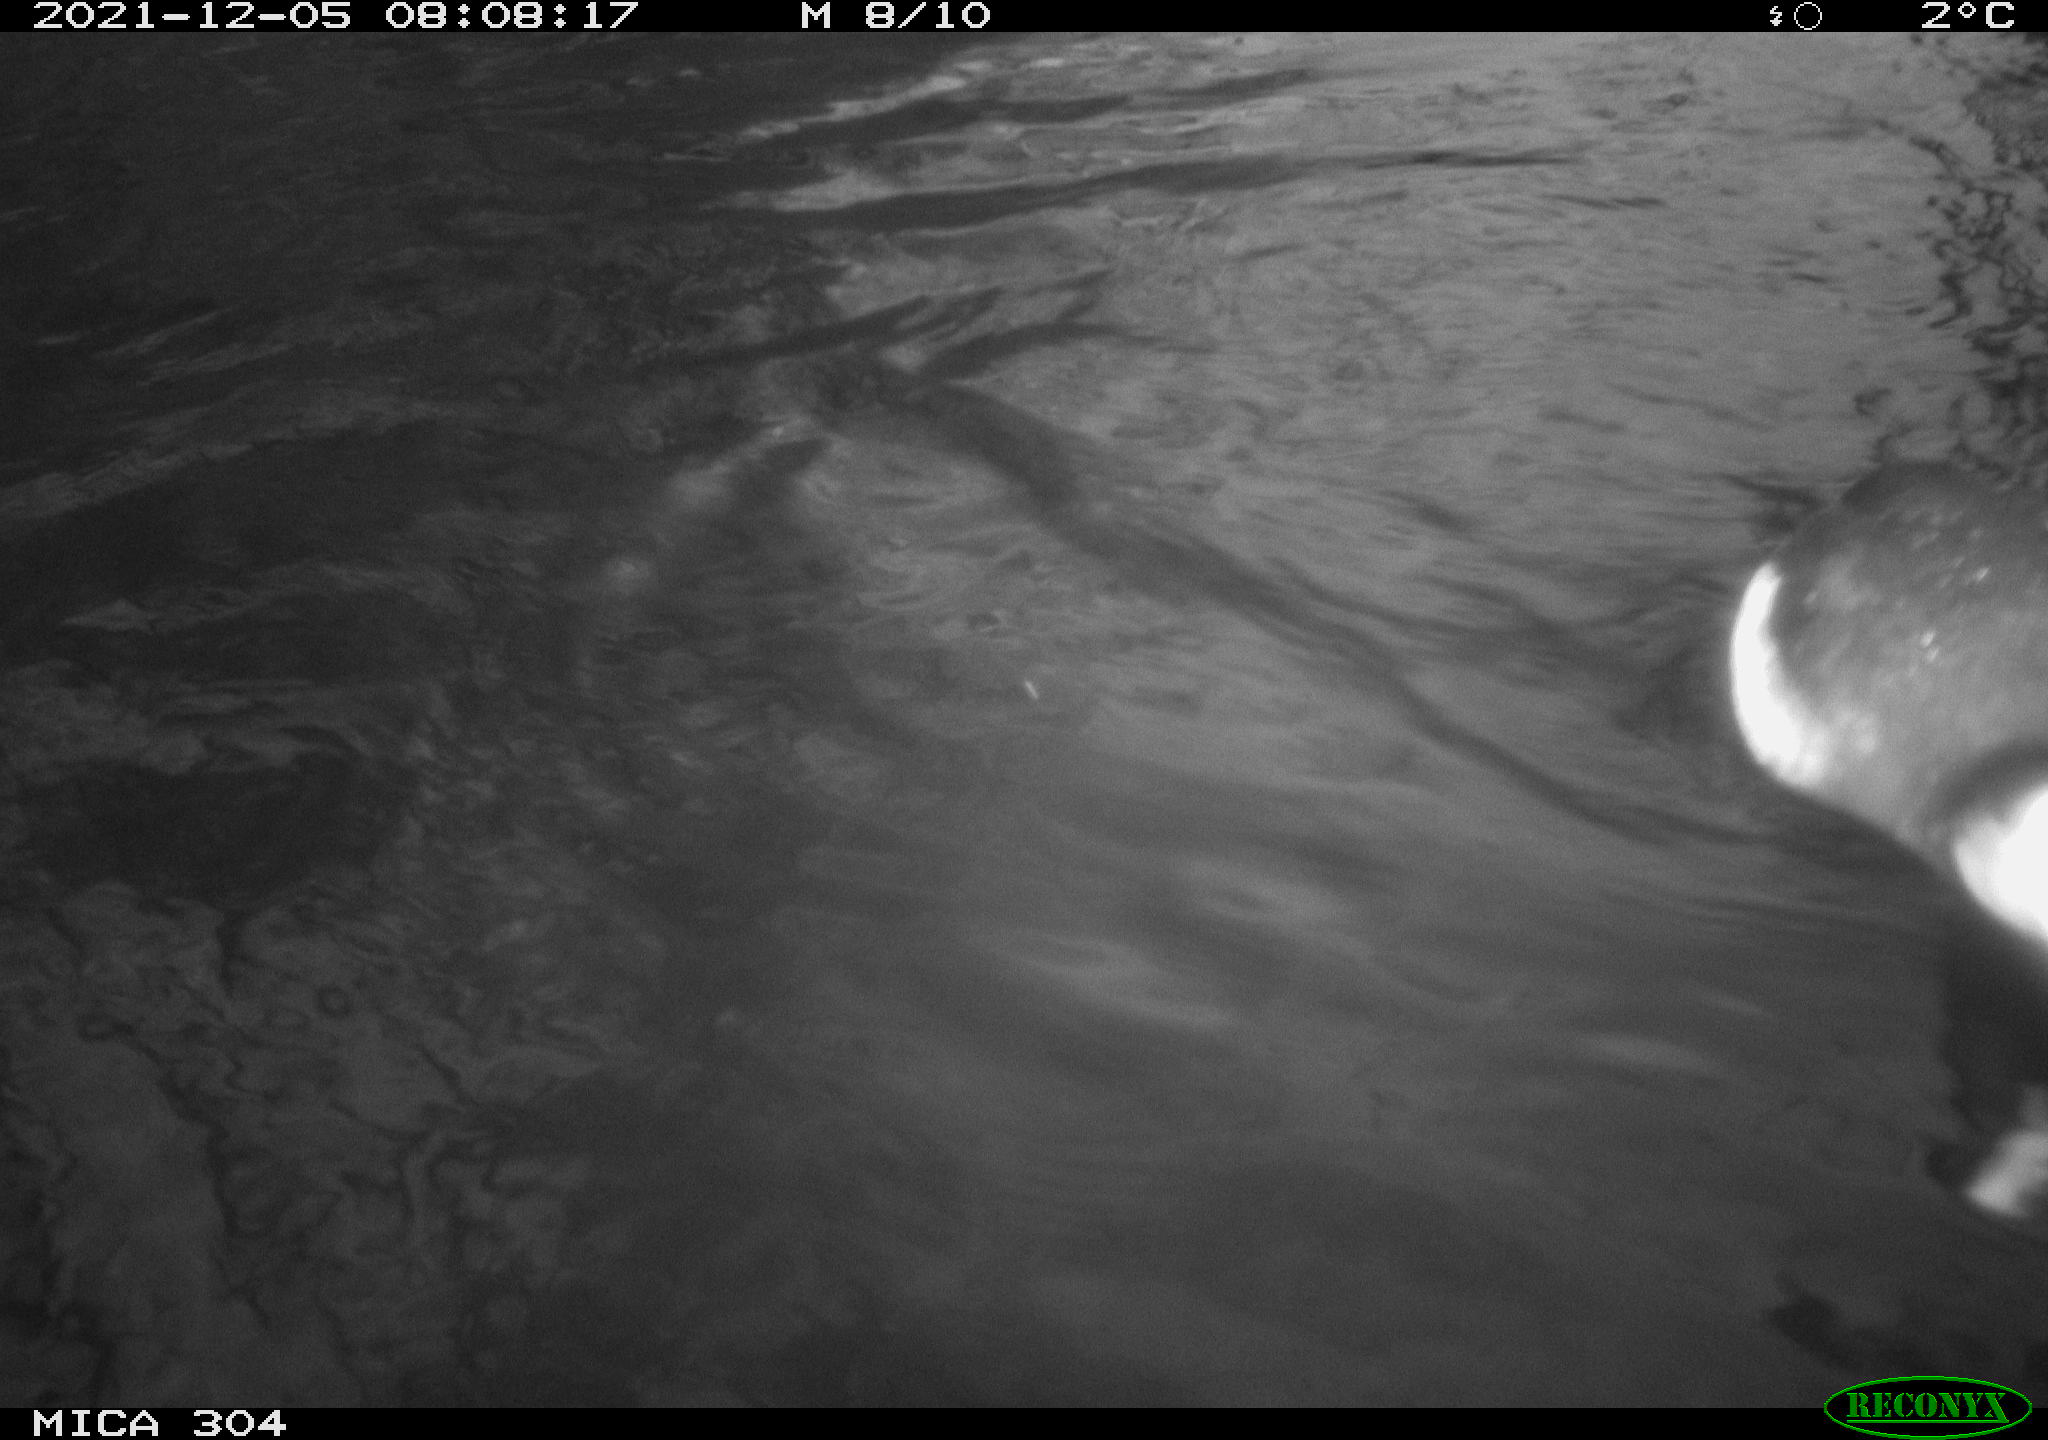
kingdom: Animalia
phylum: Chordata
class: Aves
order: Gruiformes
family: Rallidae
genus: Fulica
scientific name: Fulica atra
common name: Eurasian coot
